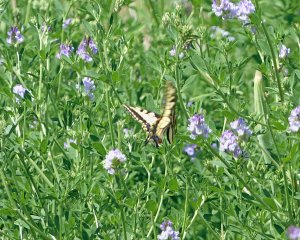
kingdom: Animalia
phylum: Arthropoda
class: Insecta
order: Lepidoptera
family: Papilionidae
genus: Pterourus
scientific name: Pterourus rutulus
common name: Western Tiger Swallowtail
